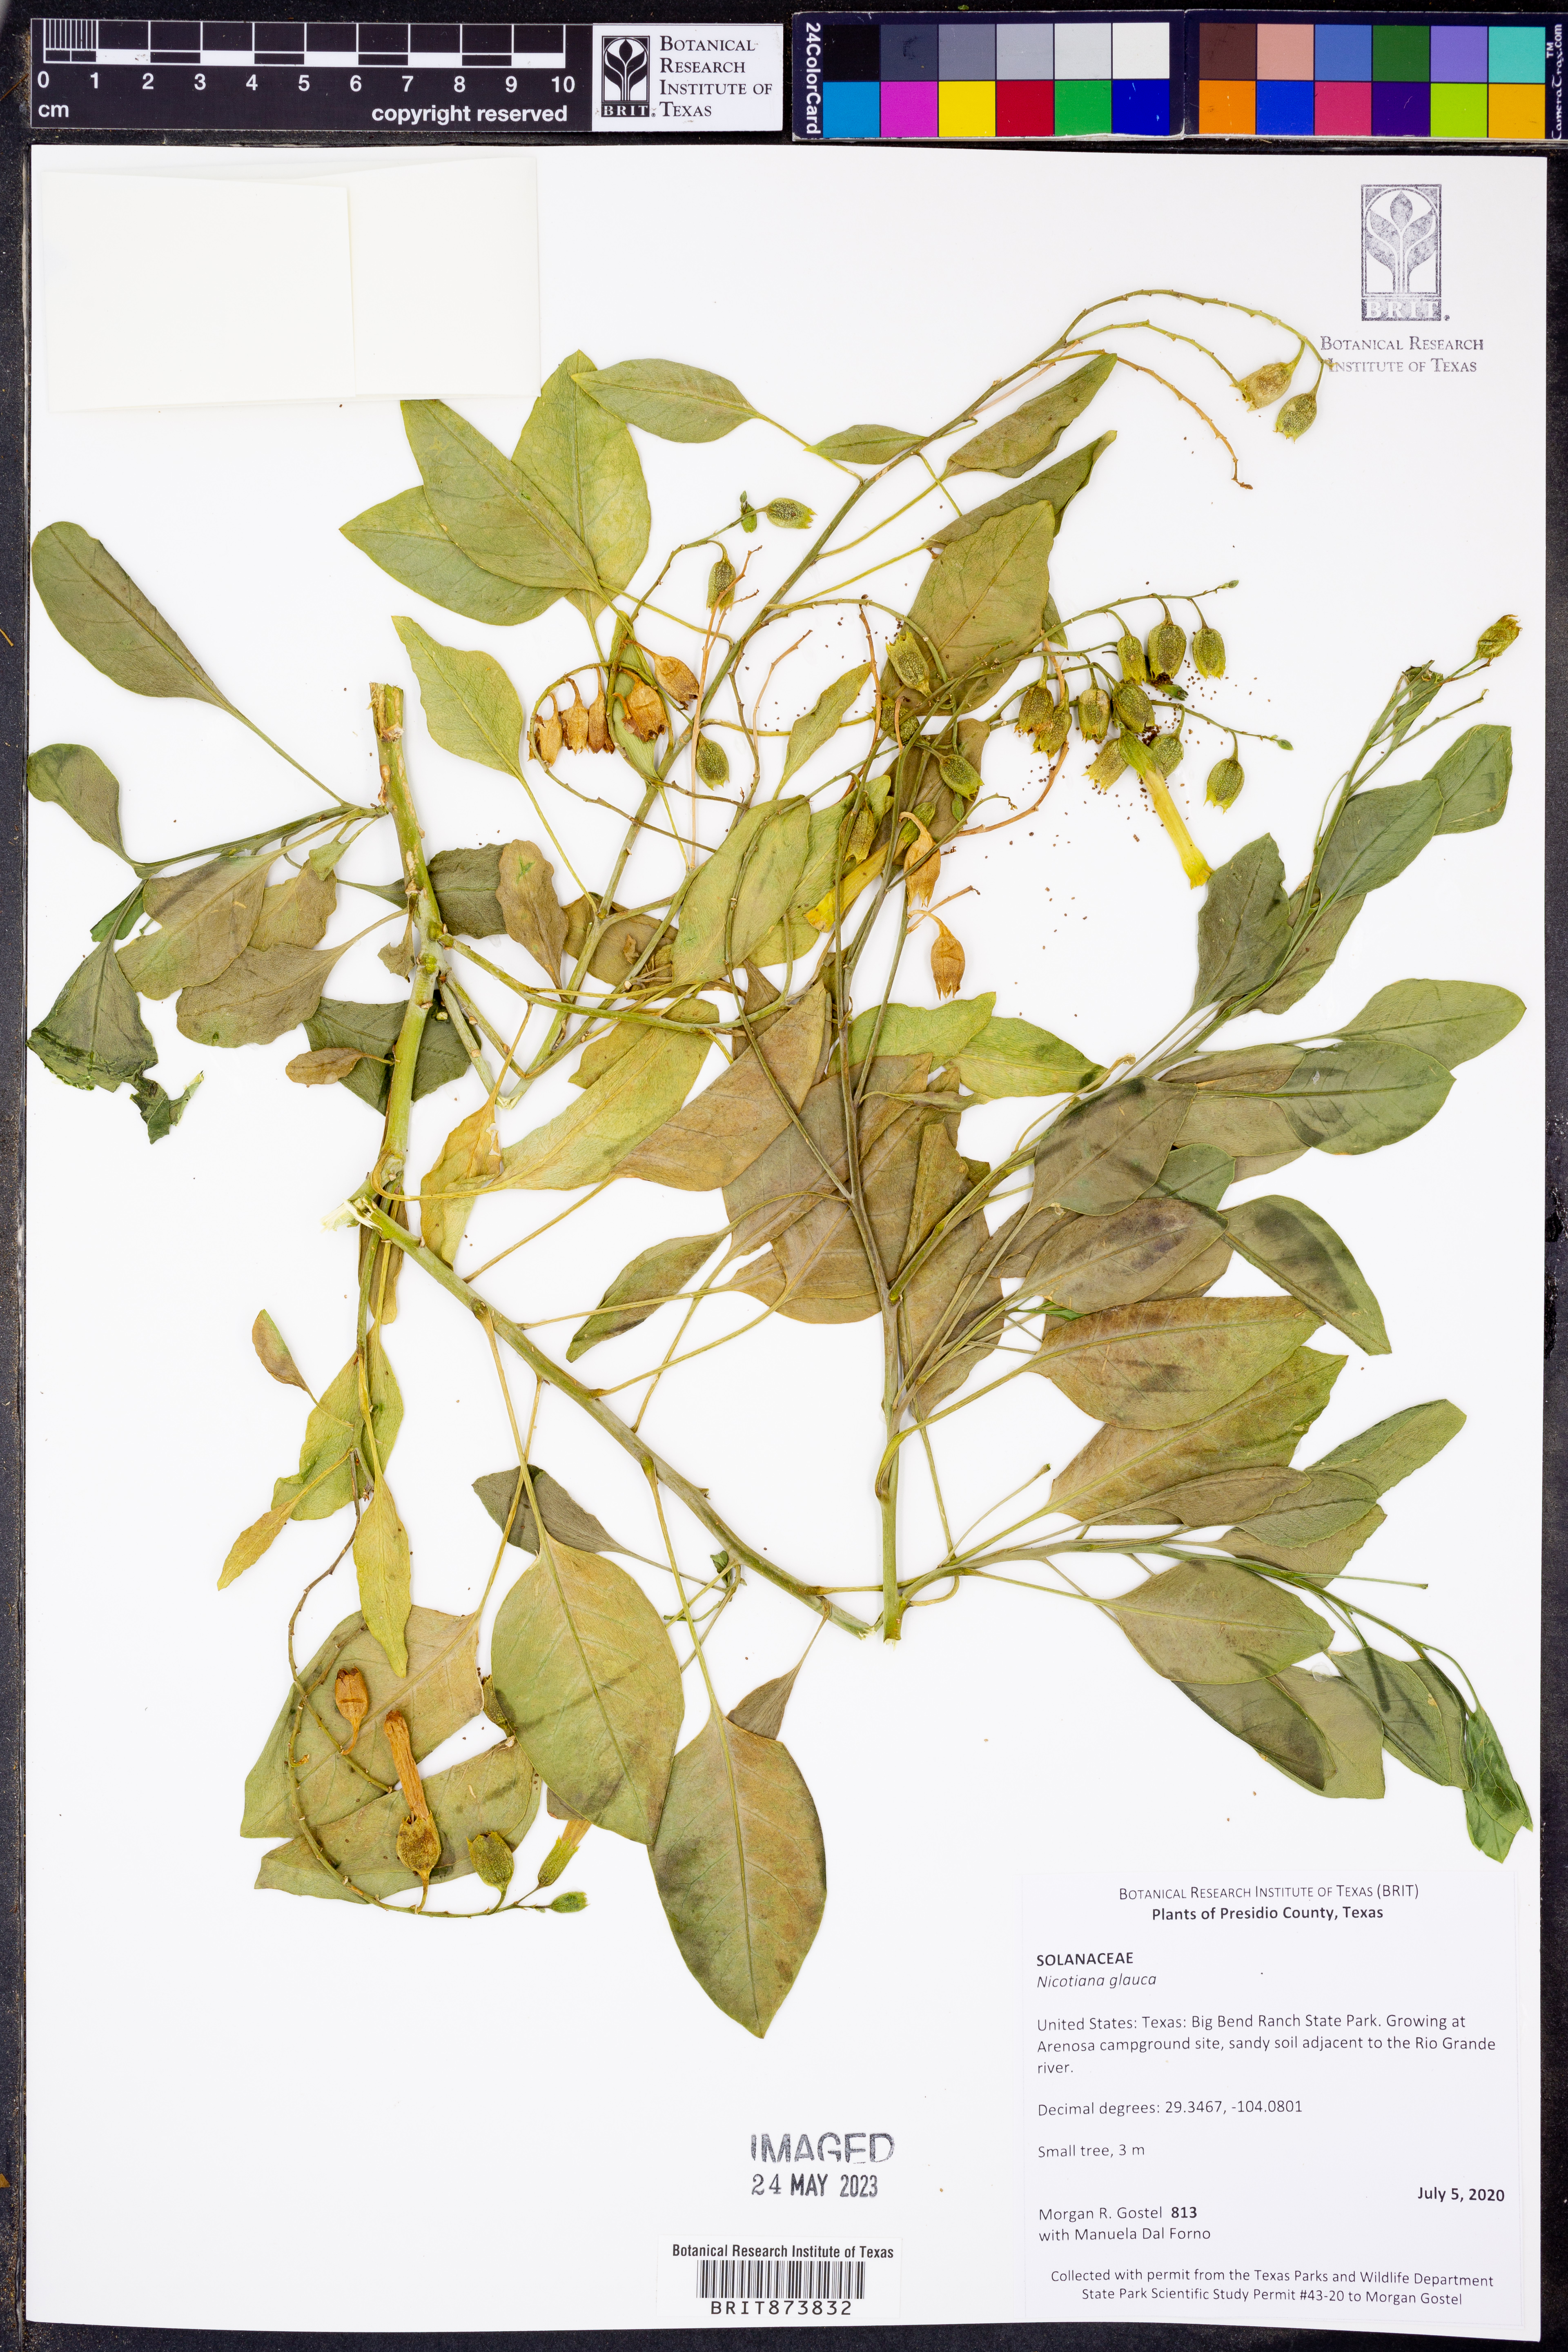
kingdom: Plantae
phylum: Tracheophyta
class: Magnoliopsida
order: Solanales
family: Solanaceae
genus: Nicotiana
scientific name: Nicotiana glauca
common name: Tree tobacco
